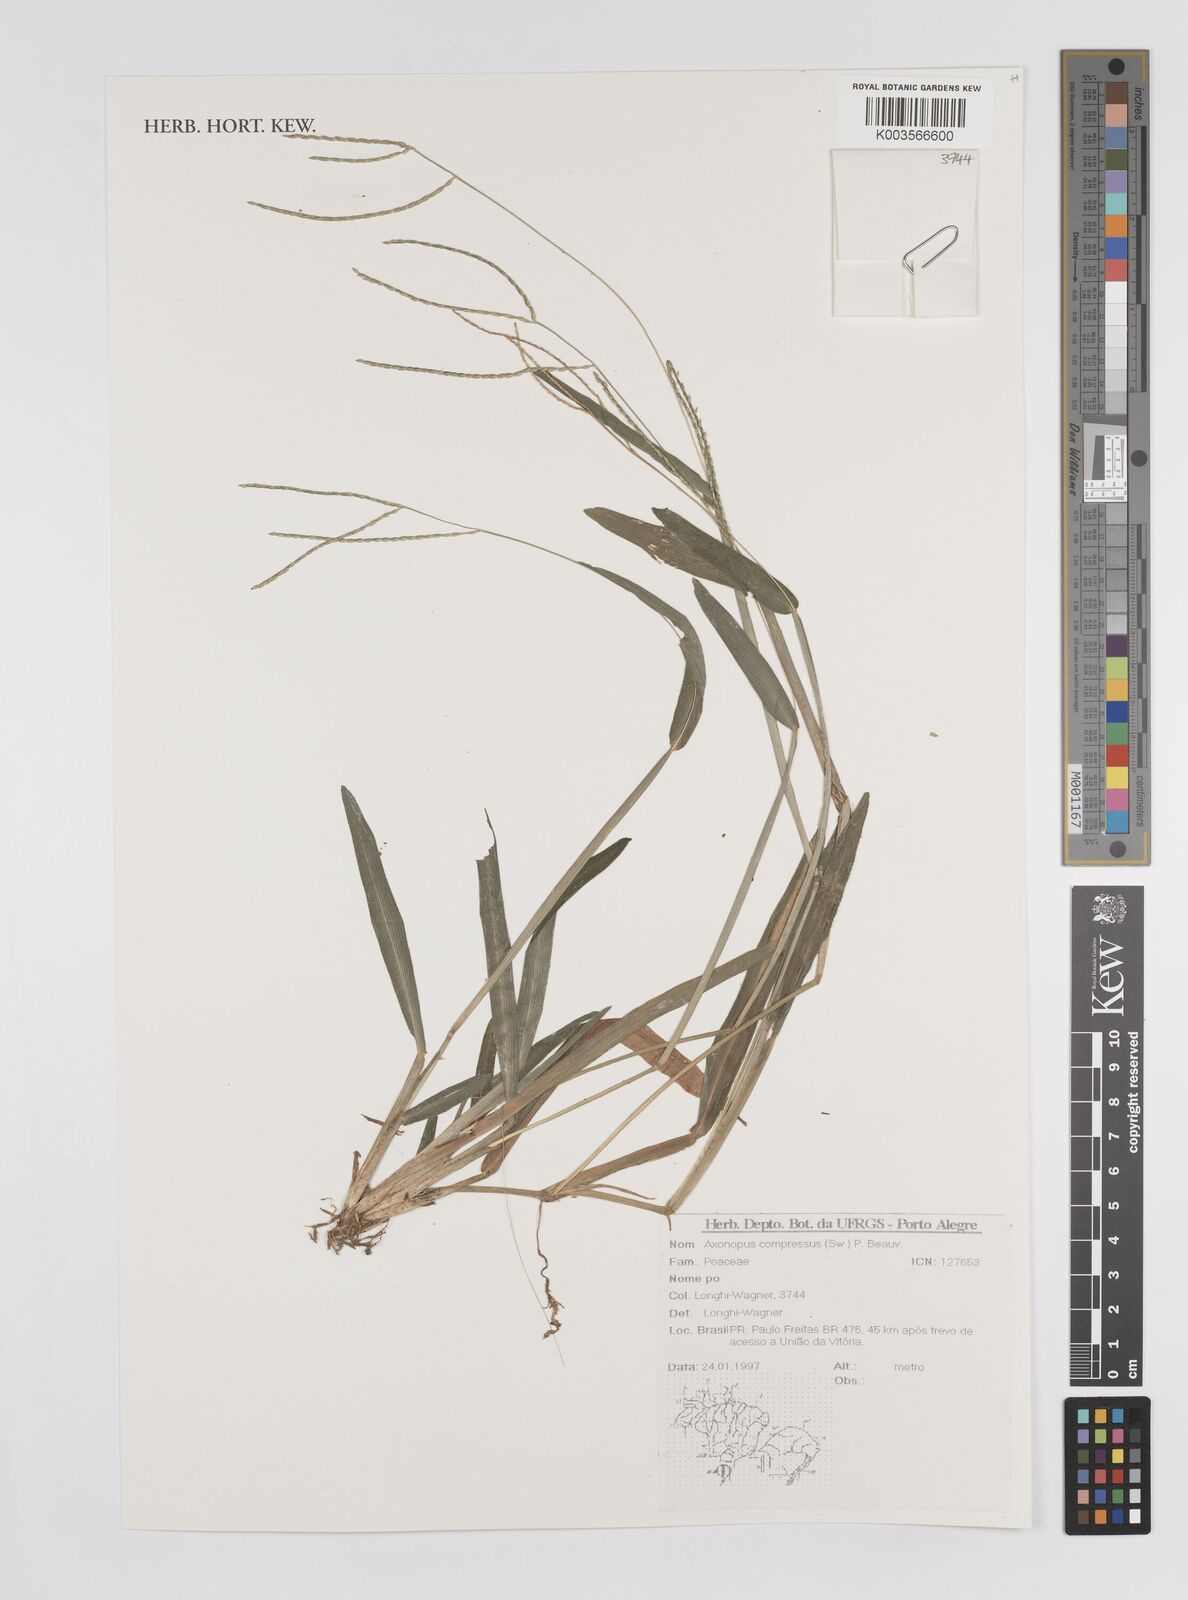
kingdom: Plantae
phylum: Tracheophyta
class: Liliopsida
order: Poales
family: Poaceae
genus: Axonopus
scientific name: Axonopus compressus
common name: American carpet grass
